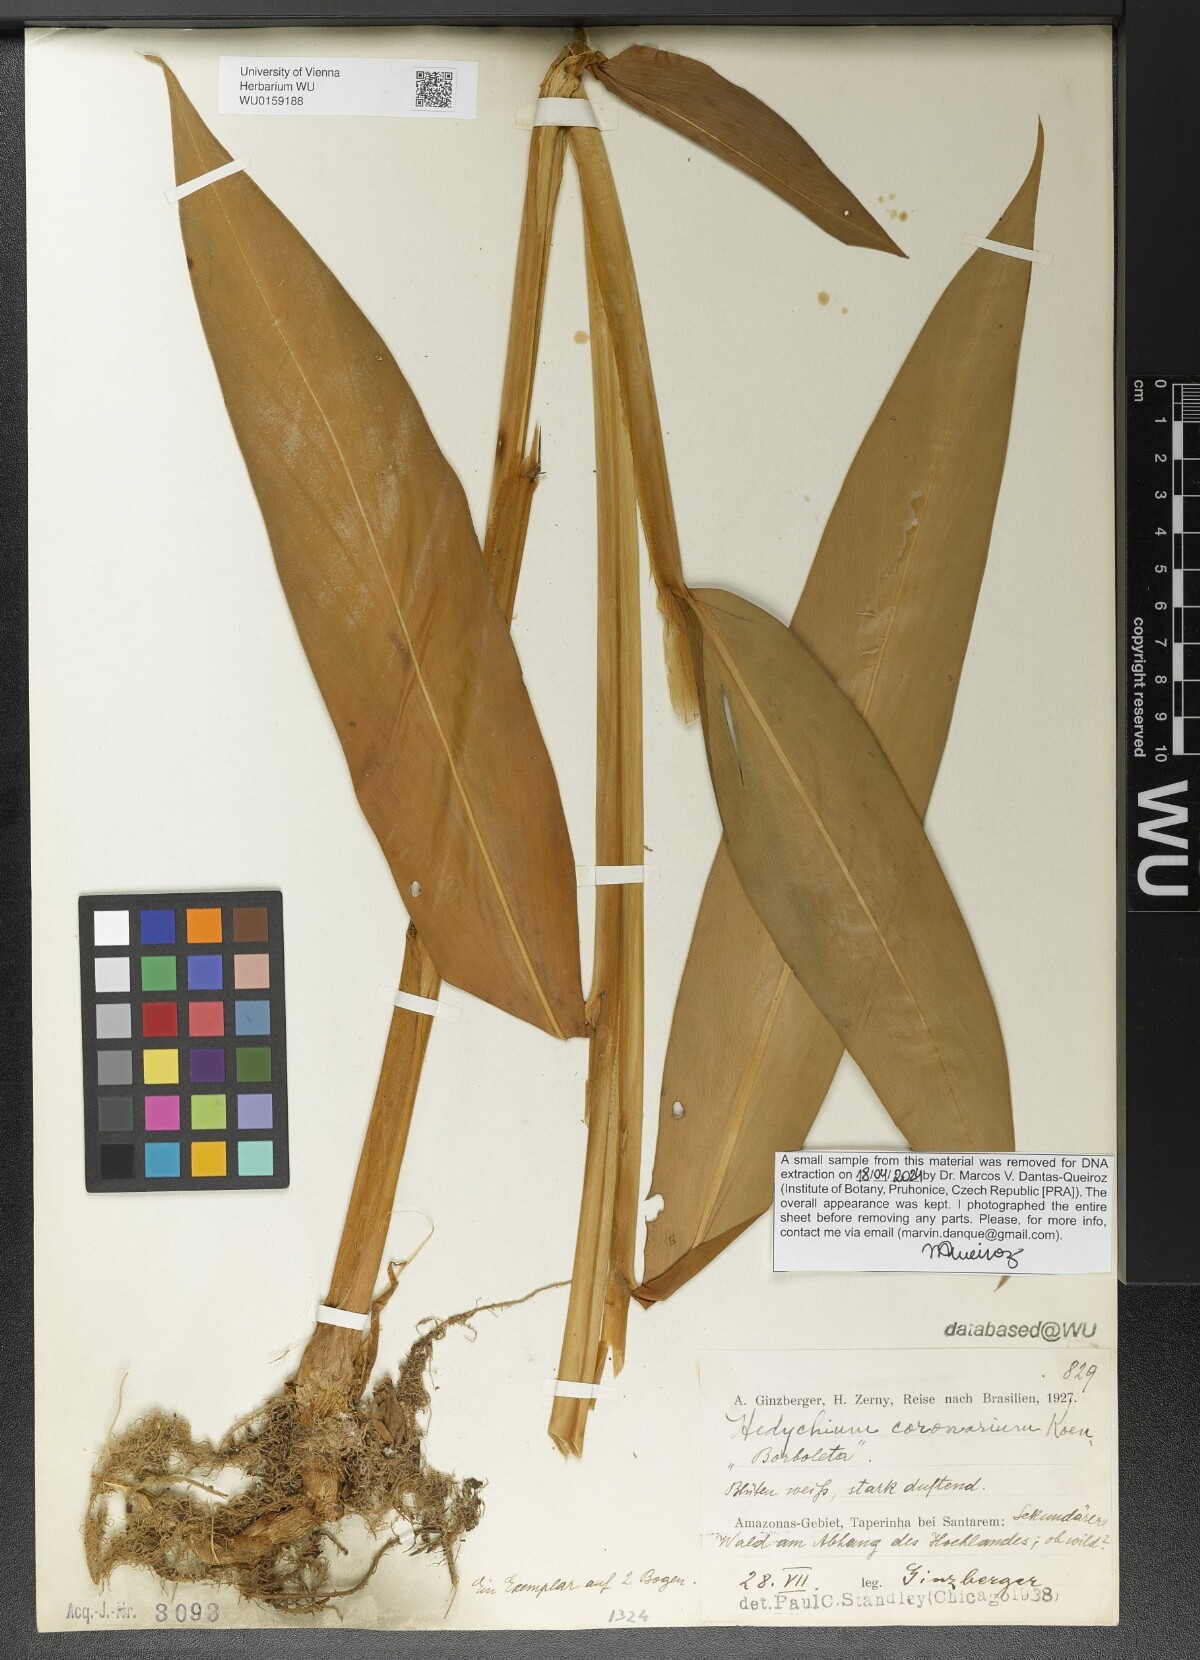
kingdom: Plantae
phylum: Tracheophyta
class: Liliopsida
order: Zingiberales
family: Zingiberaceae
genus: Hedychium
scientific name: Hedychium coronarium
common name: White garland-lily
